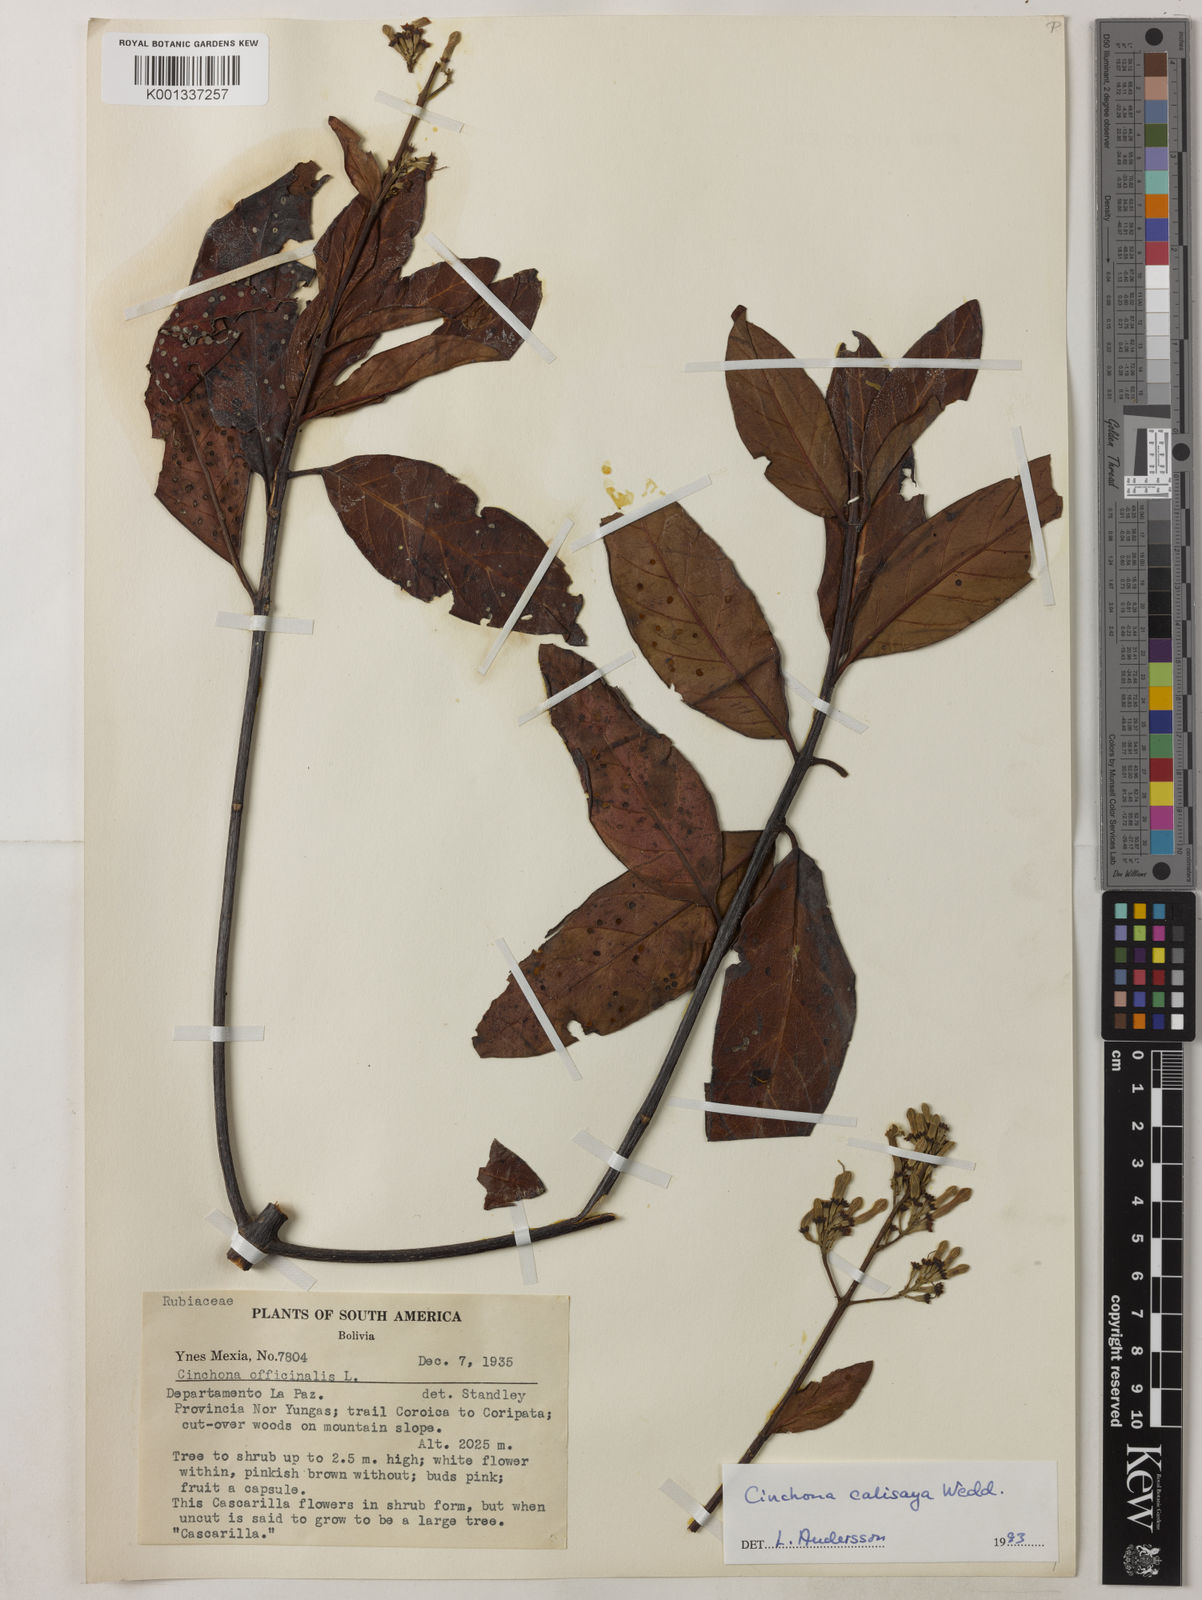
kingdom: Plantae
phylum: Tracheophyta
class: Magnoliopsida
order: Gentianales
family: Rubiaceae
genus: Cinchona
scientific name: Cinchona calisaya
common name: Ledgerbark
